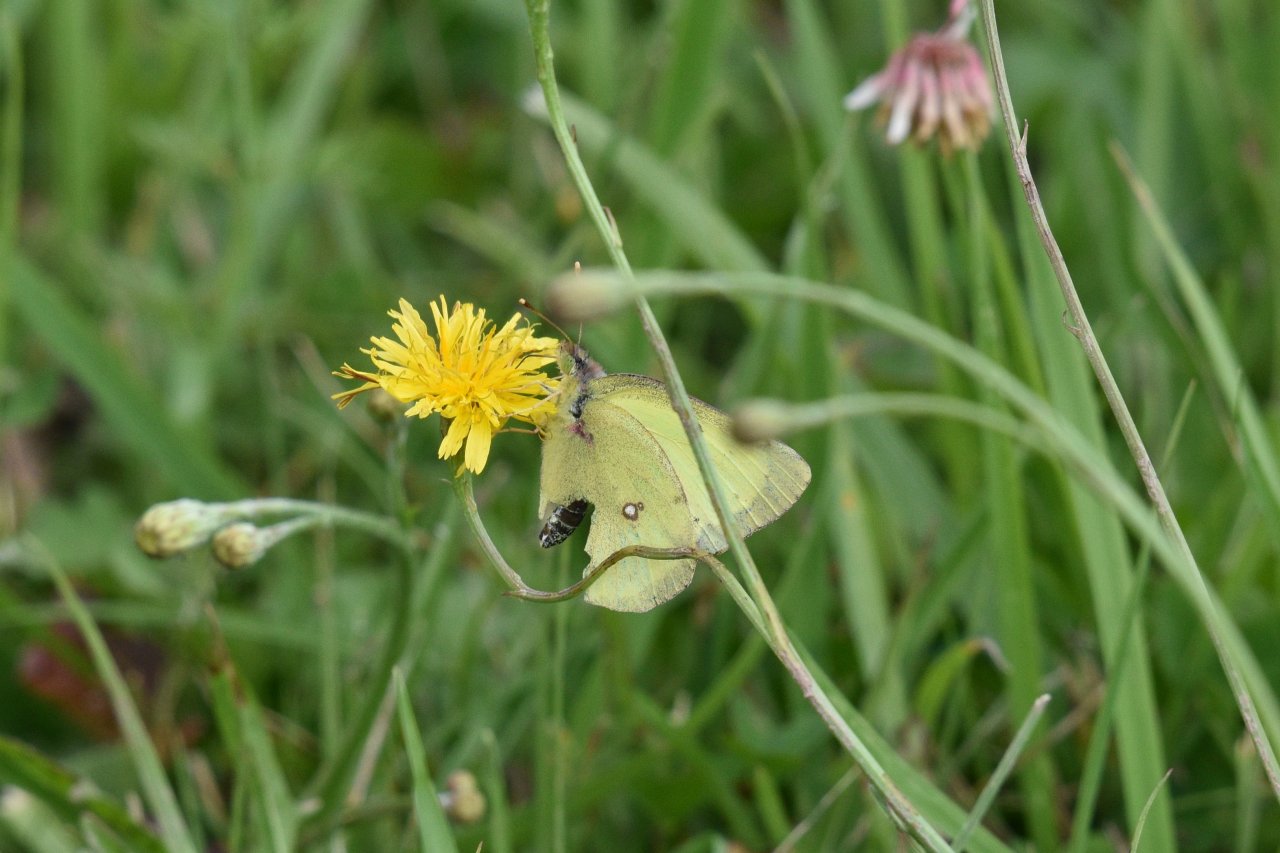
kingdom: Animalia
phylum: Arthropoda
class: Insecta
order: Lepidoptera
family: Pieridae
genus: Colias
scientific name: Colias philodice
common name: Clouded Sulphur
